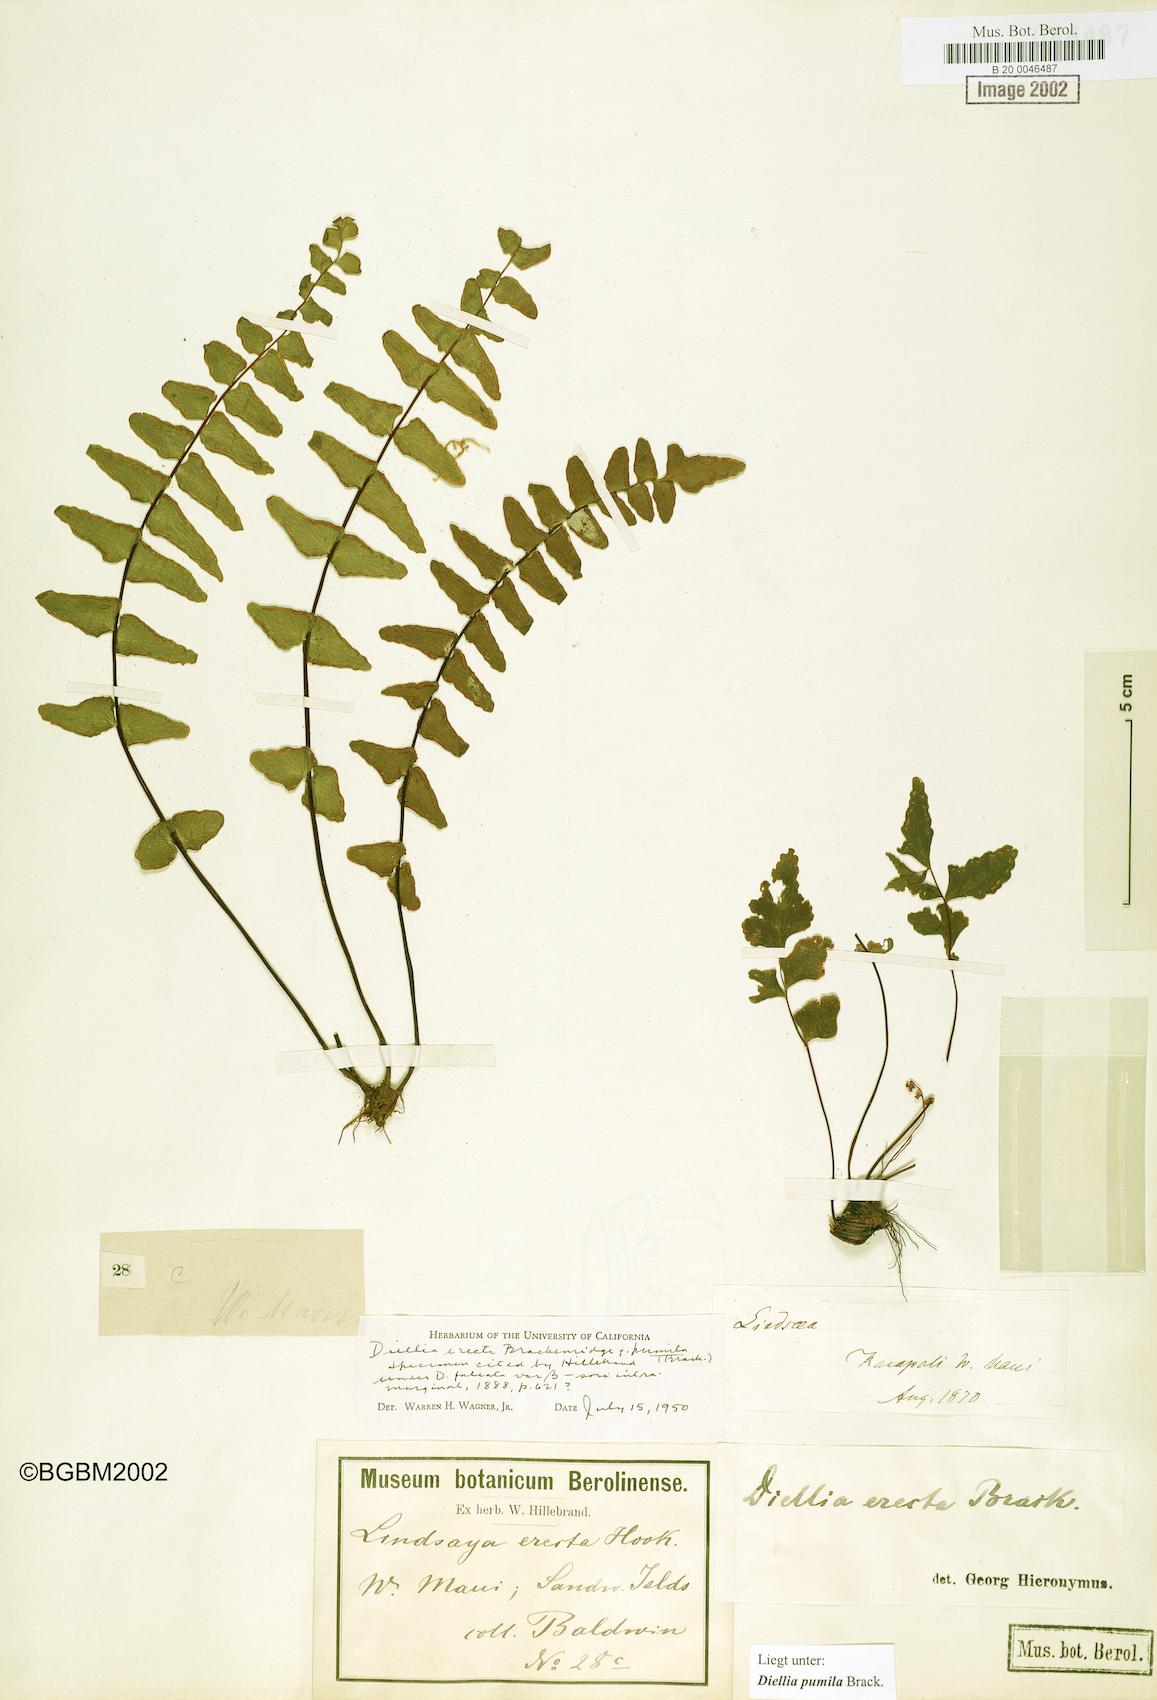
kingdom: Plantae
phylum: Tracheophyta
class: Polypodiopsida
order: Polypodiales
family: Aspleniaceae
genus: Asplenium
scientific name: Asplenium dielerectum
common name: Erect island spleenwort
